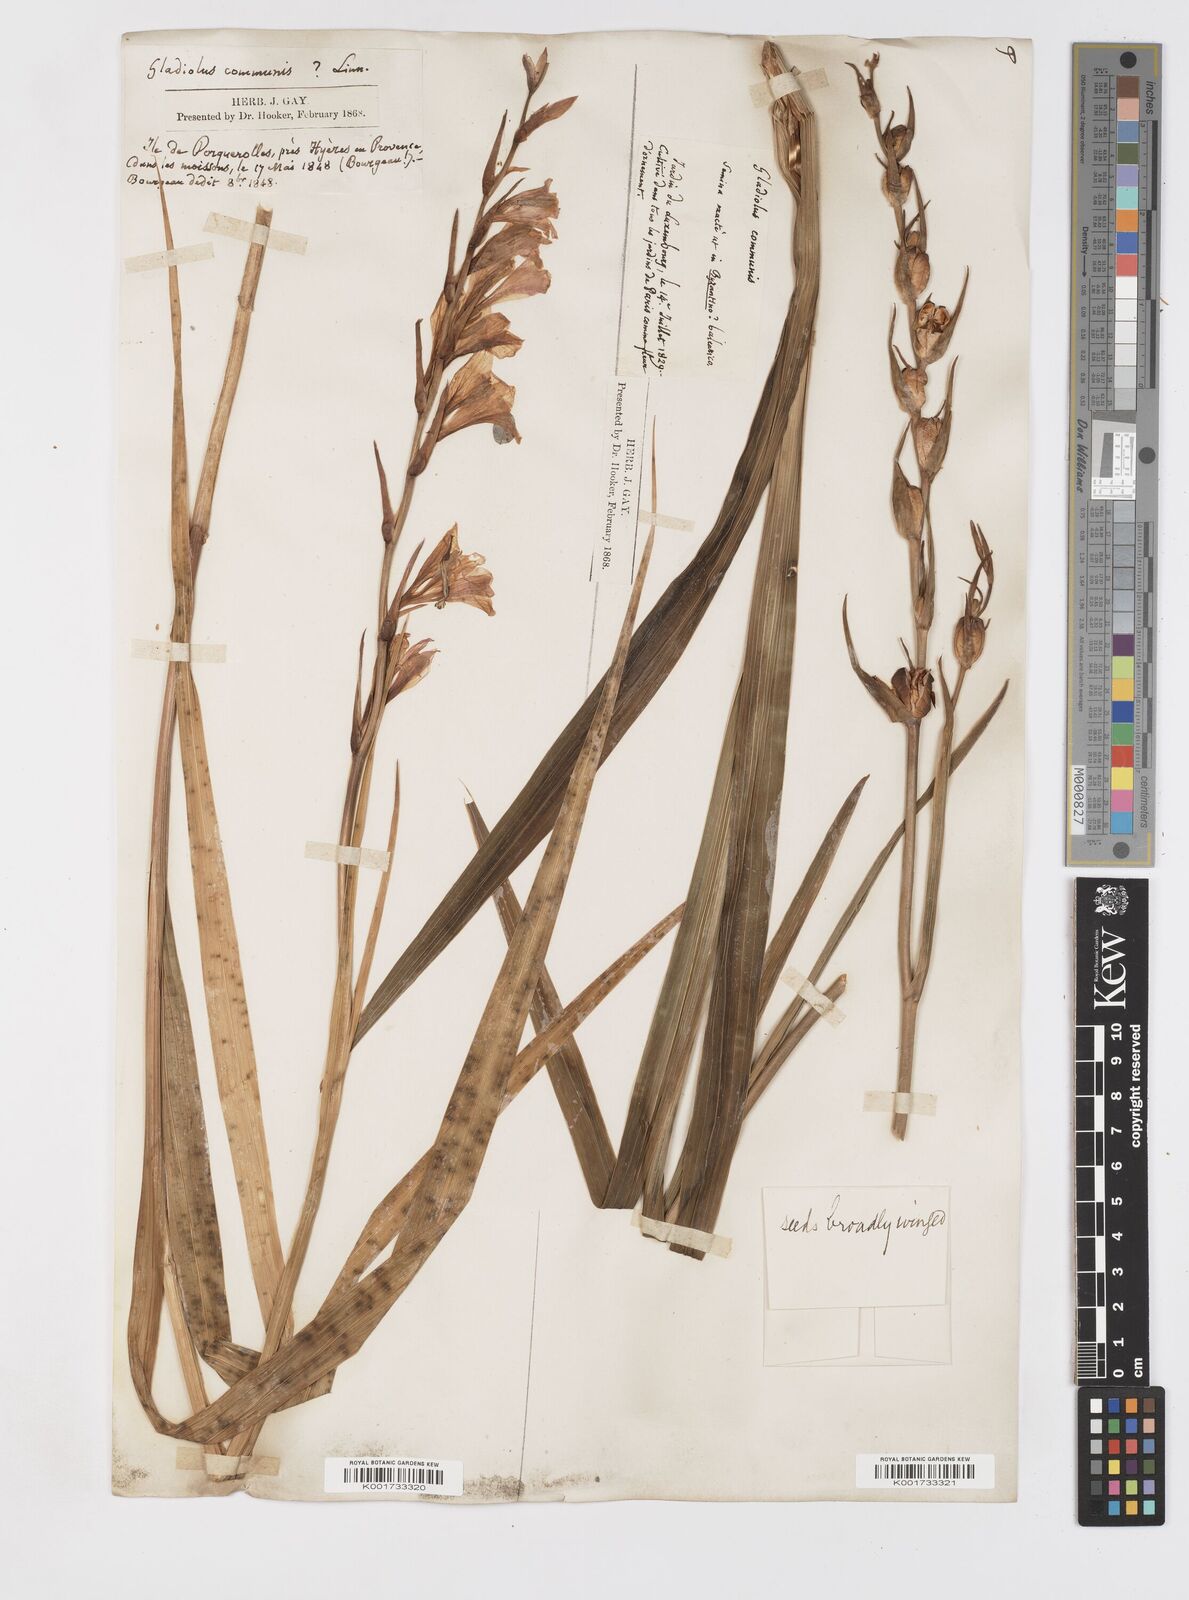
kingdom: Plantae
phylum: Tracheophyta
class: Liliopsida
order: Asparagales
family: Iridaceae
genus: Gladiolus
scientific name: Gladiolus communis
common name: Eastern gladiolus
